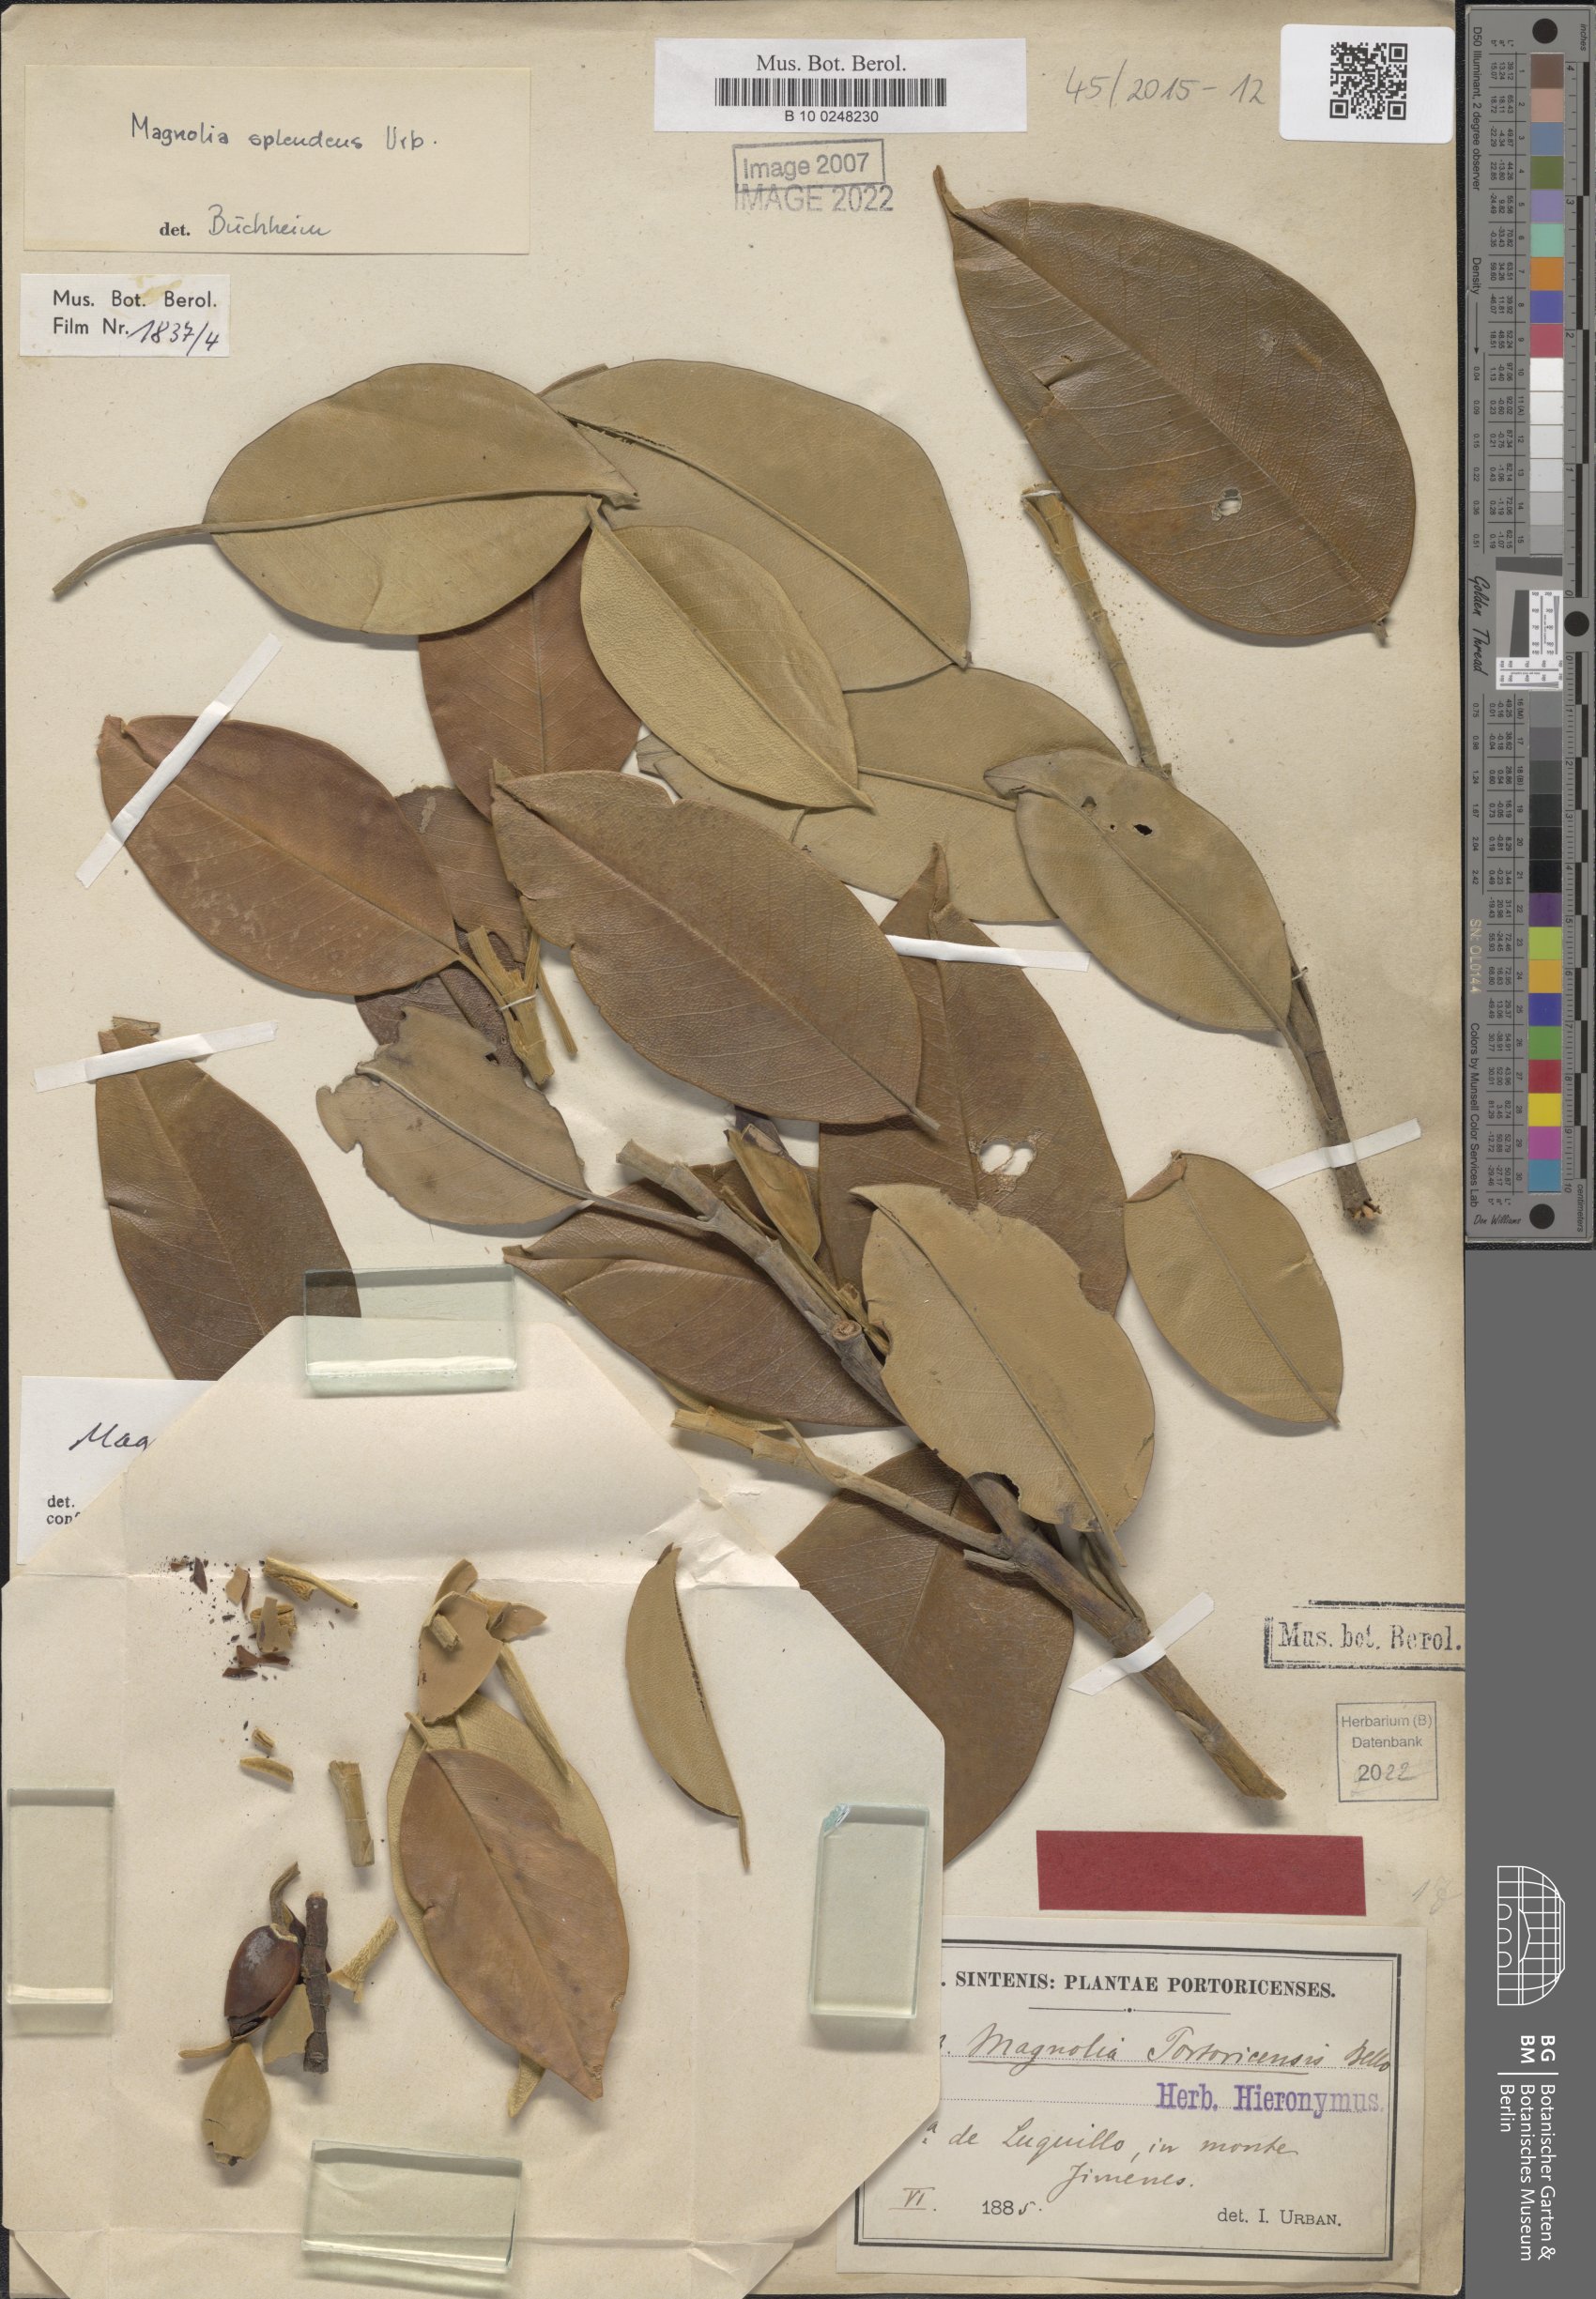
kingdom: Plantae
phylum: Tracheophyta
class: Magnoliopsida
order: Magnoliales
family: Magnoliaceae
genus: Magnolia
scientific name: Magnolia splendens
